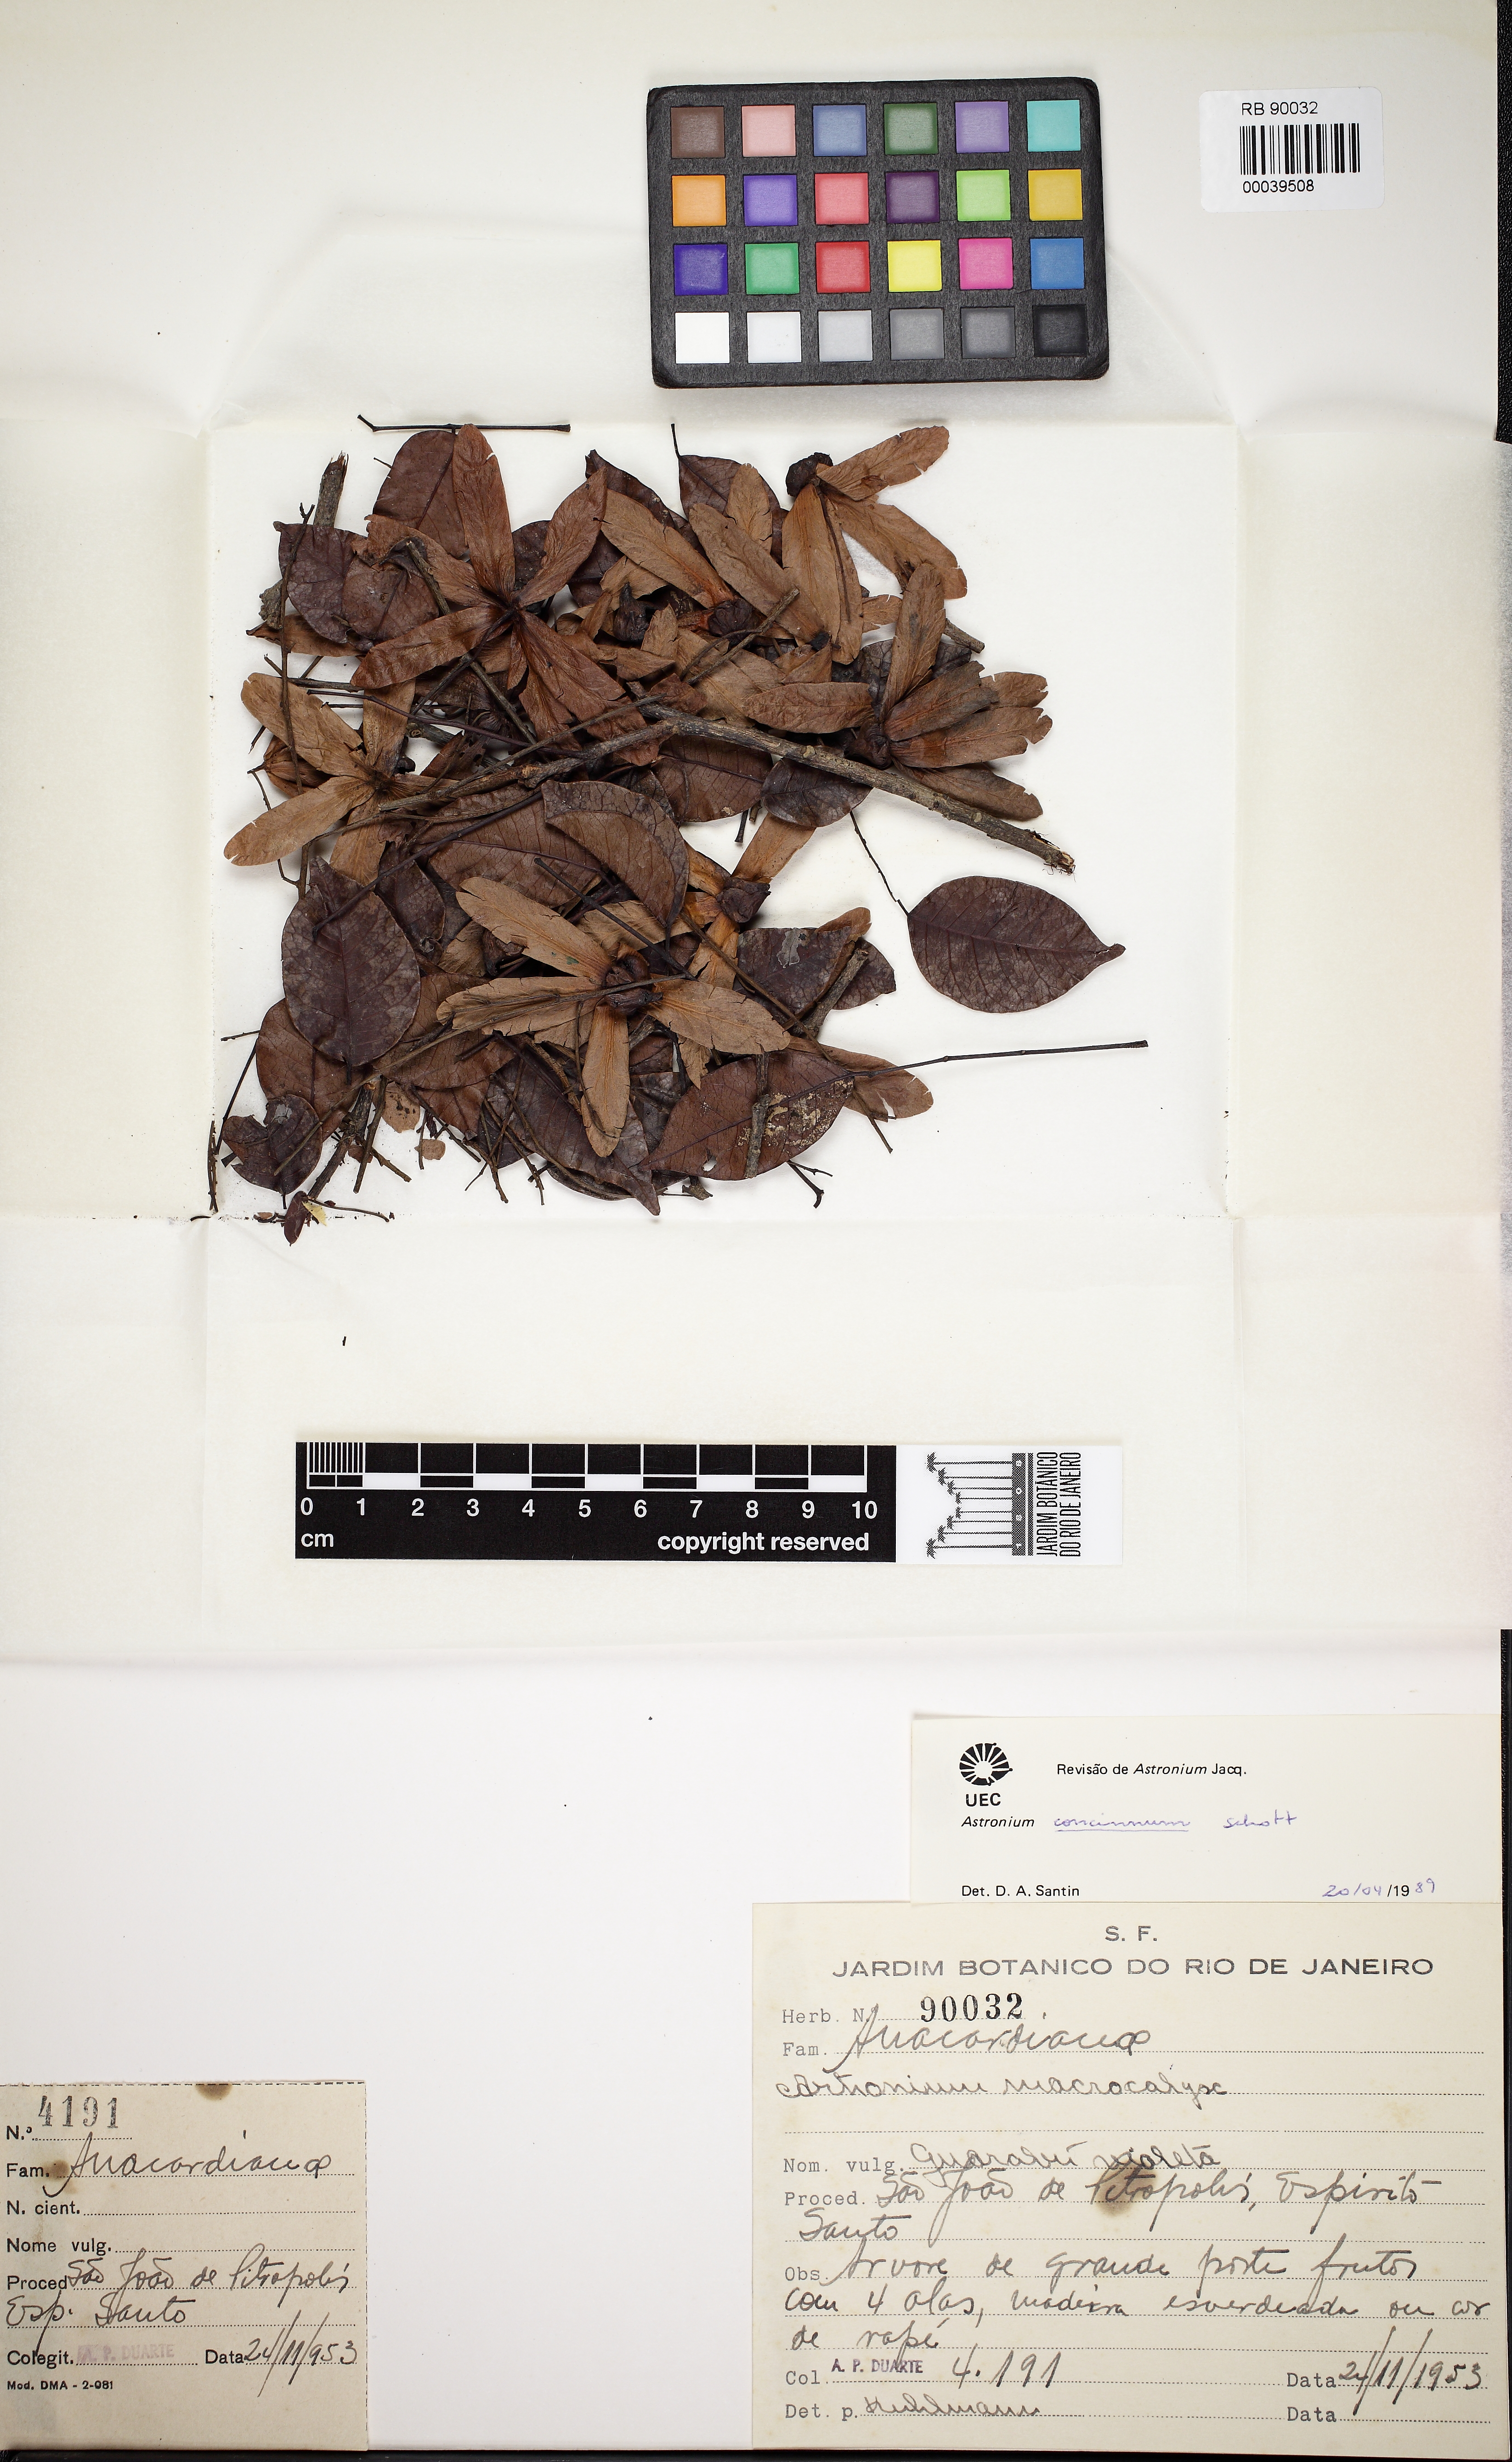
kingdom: Plantae
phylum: Tracheophyta
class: Magnoliopsida
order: Sapindales
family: Anacardiaceae
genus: Astronium
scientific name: Astronium concinnum
